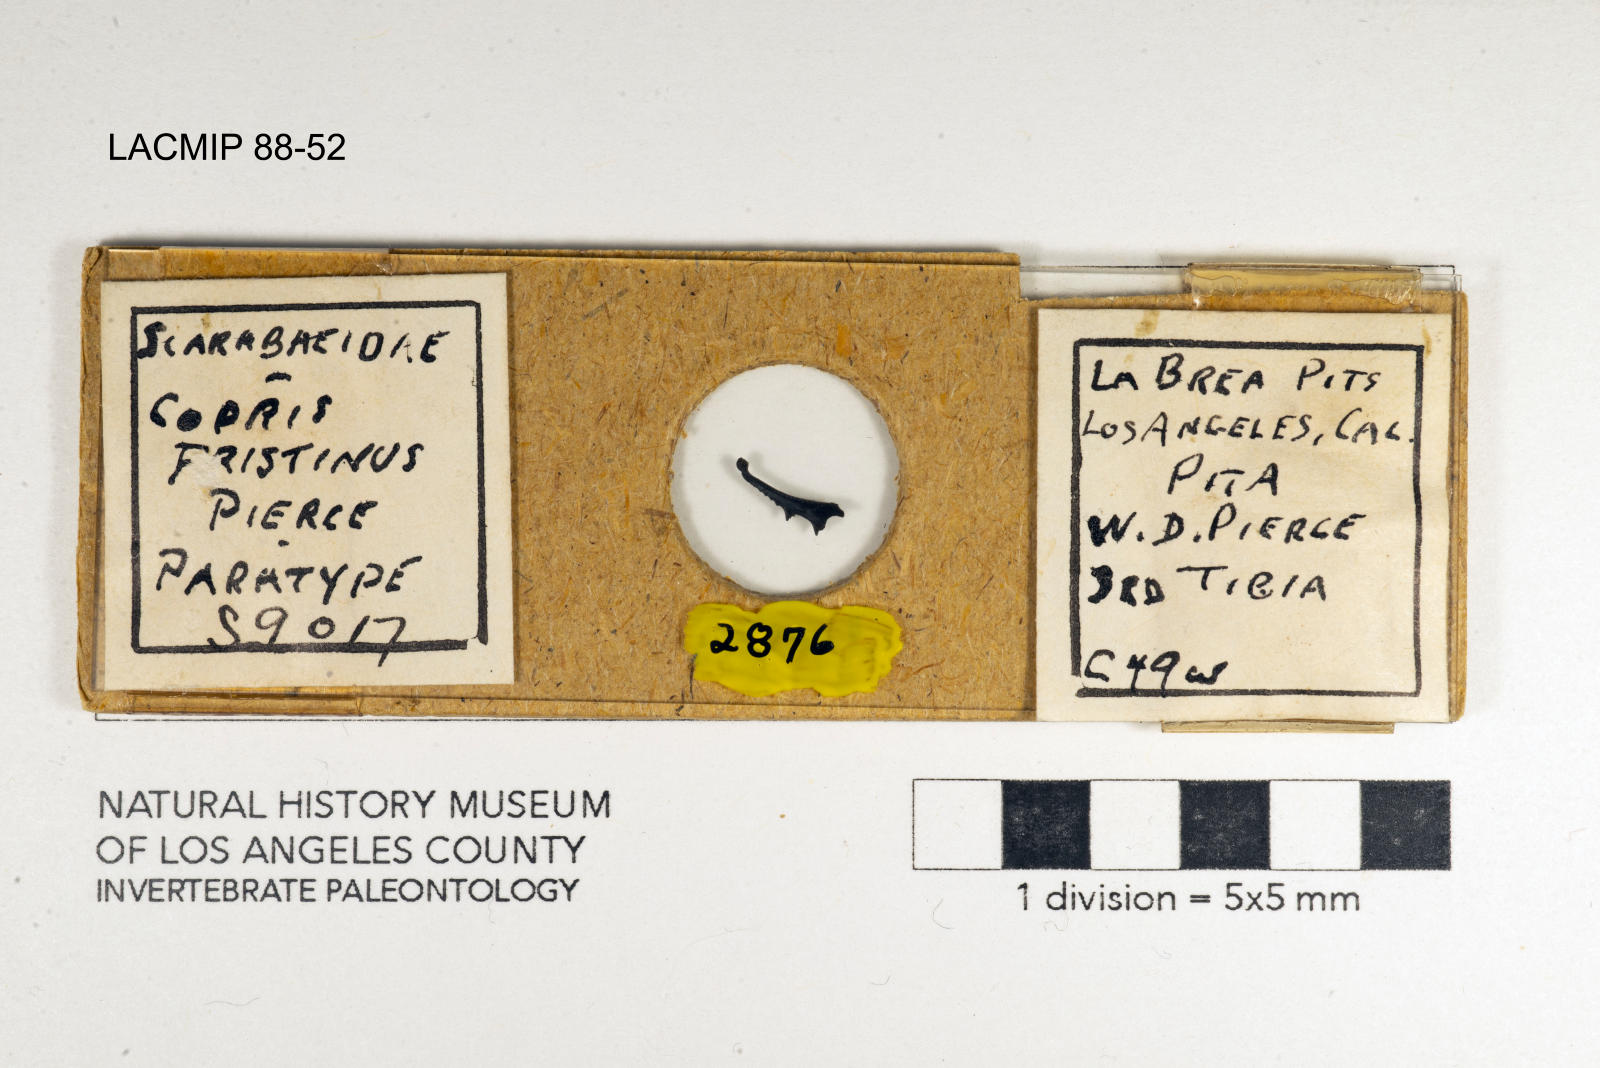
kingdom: Animalia
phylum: Arthropoda
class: Insecta
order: Coleoptera
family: Scarabaeidae
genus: Copris
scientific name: Copris pristinus
